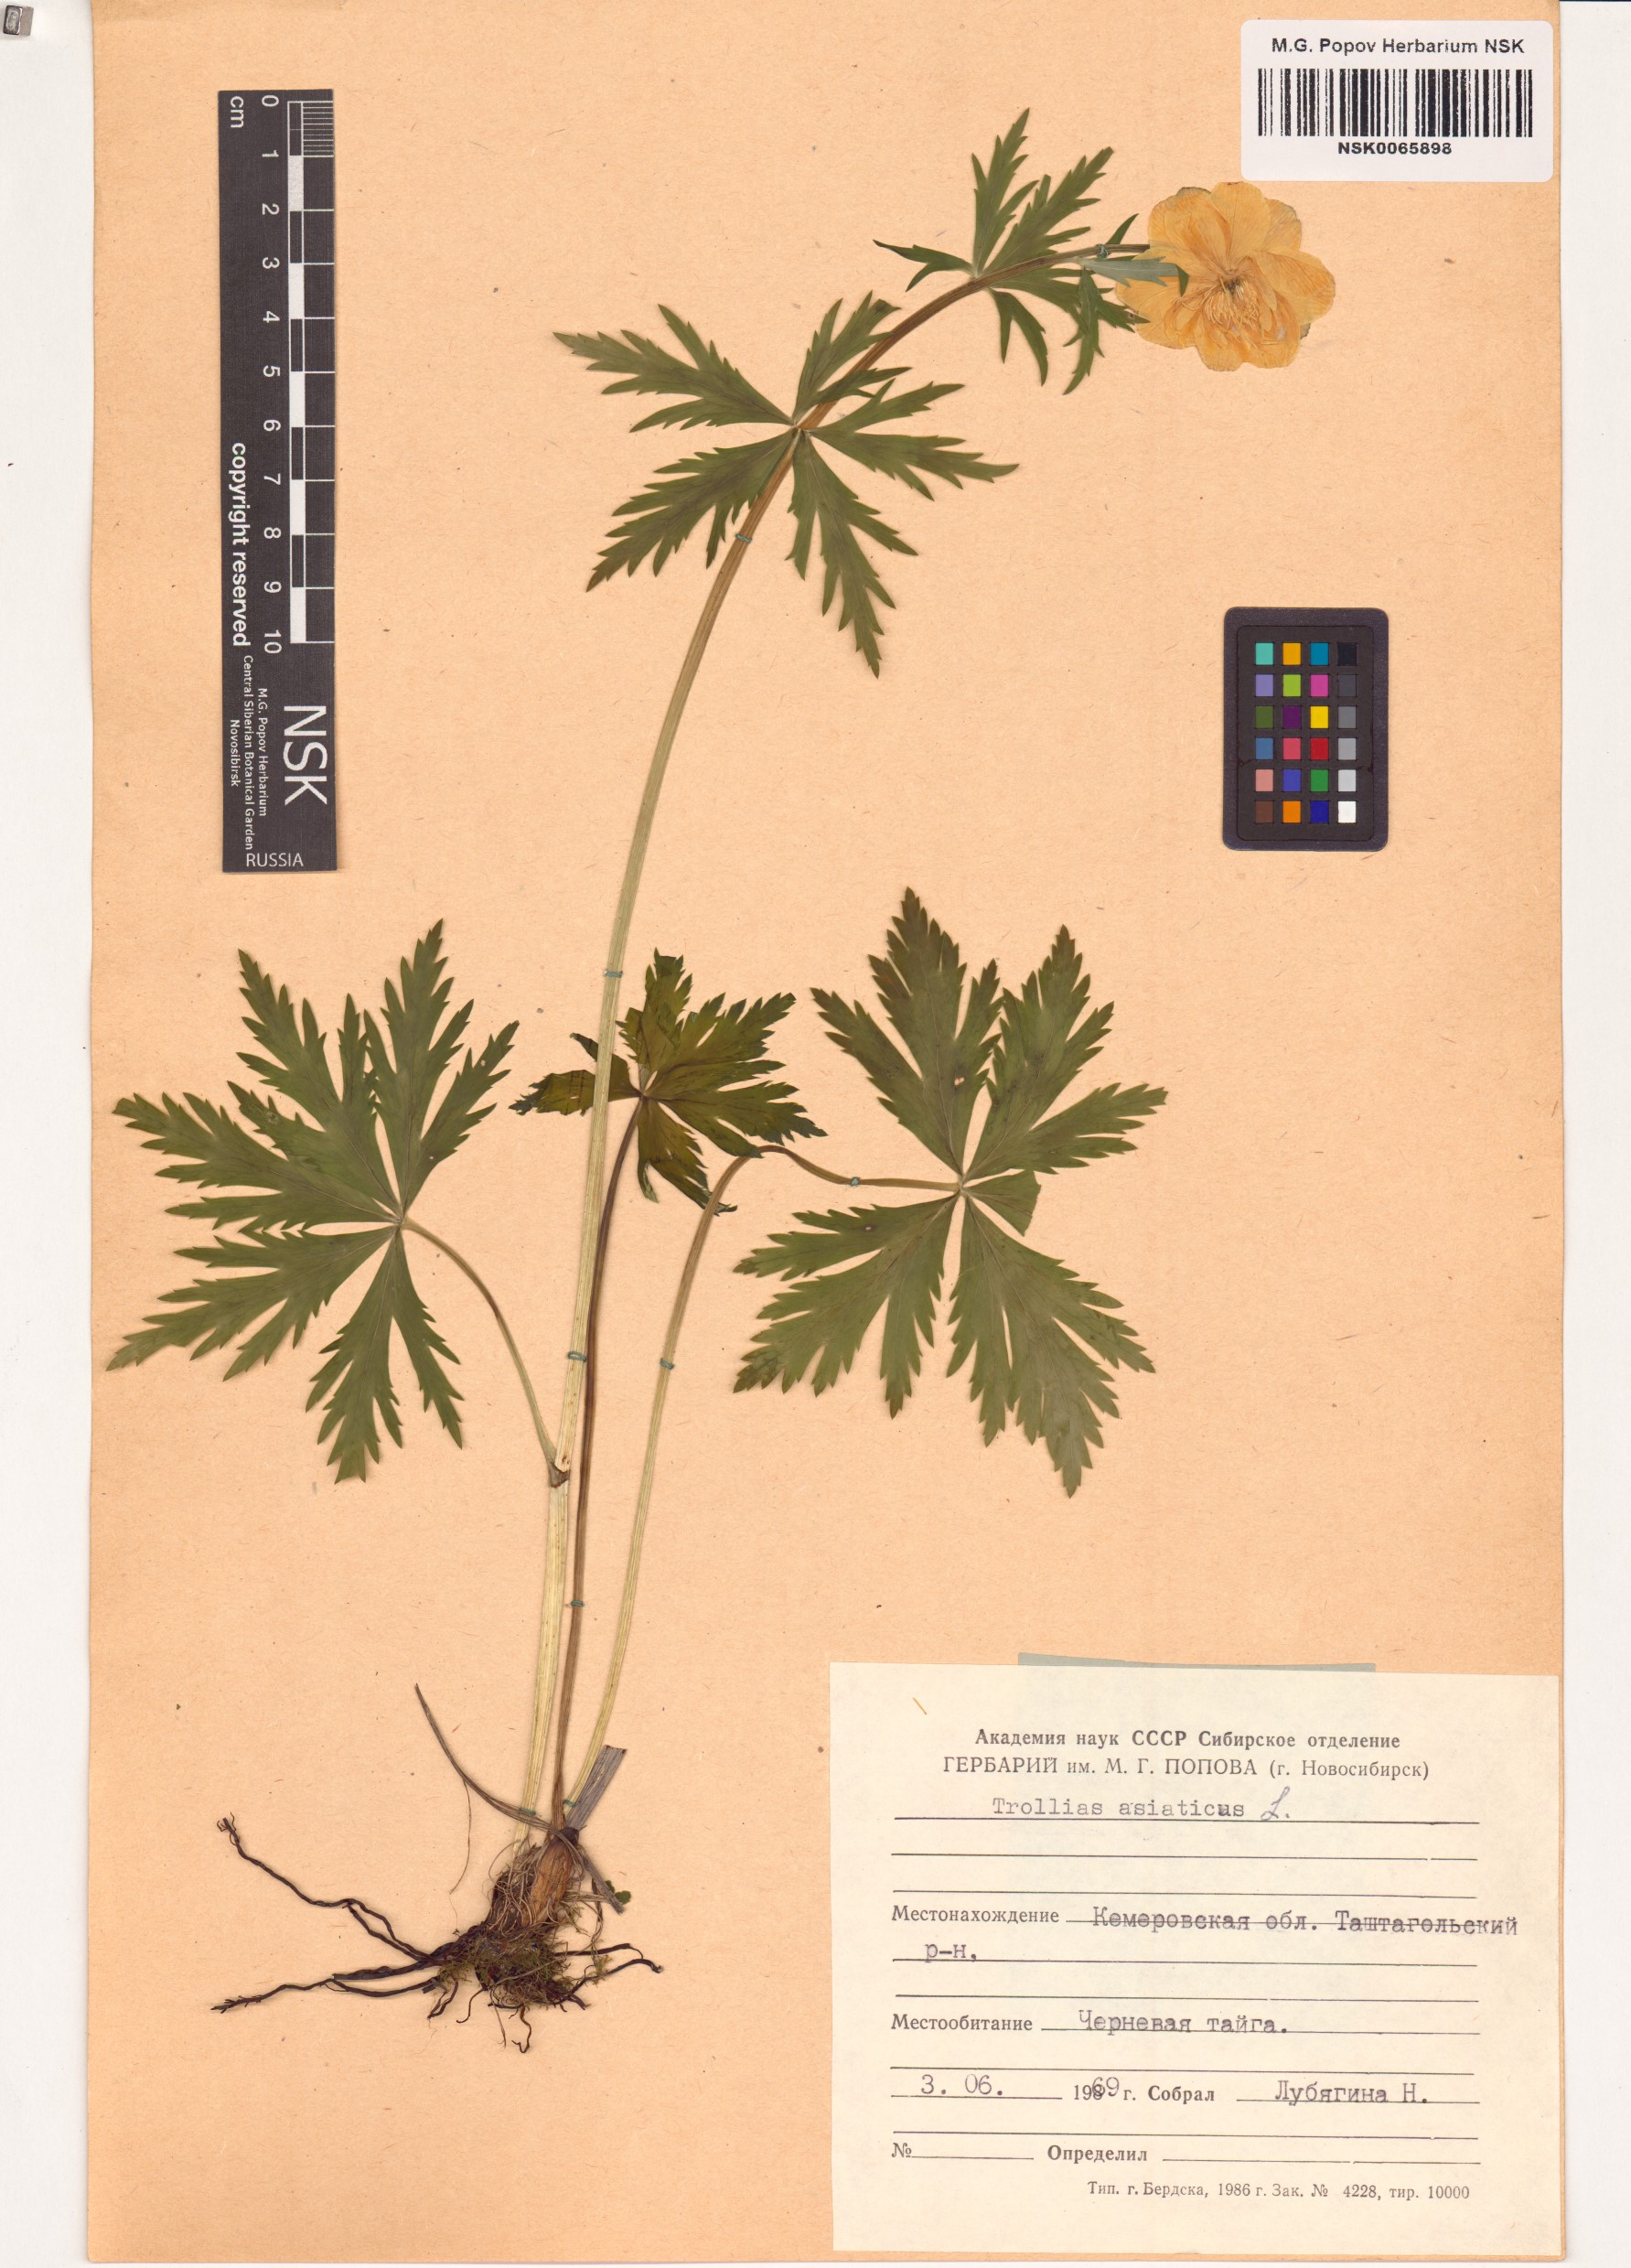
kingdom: Plantae
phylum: Tracheophyta
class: Magnoliopsida
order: Ranunculales
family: Ranunculaceae
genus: Trollius
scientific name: Trollius asiaticus
